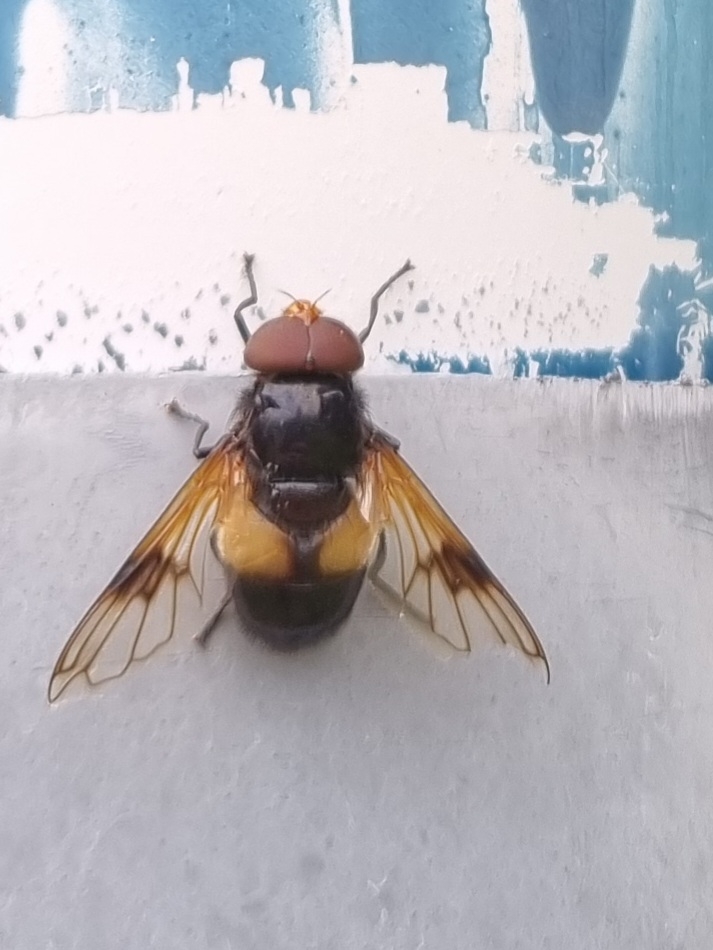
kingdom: Animalia
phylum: Arthropoda
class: Insecta
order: Diptera
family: Syrphidae
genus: Volucella
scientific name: Volucella pellucens
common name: Hvidbåndet humlesvirreflue
